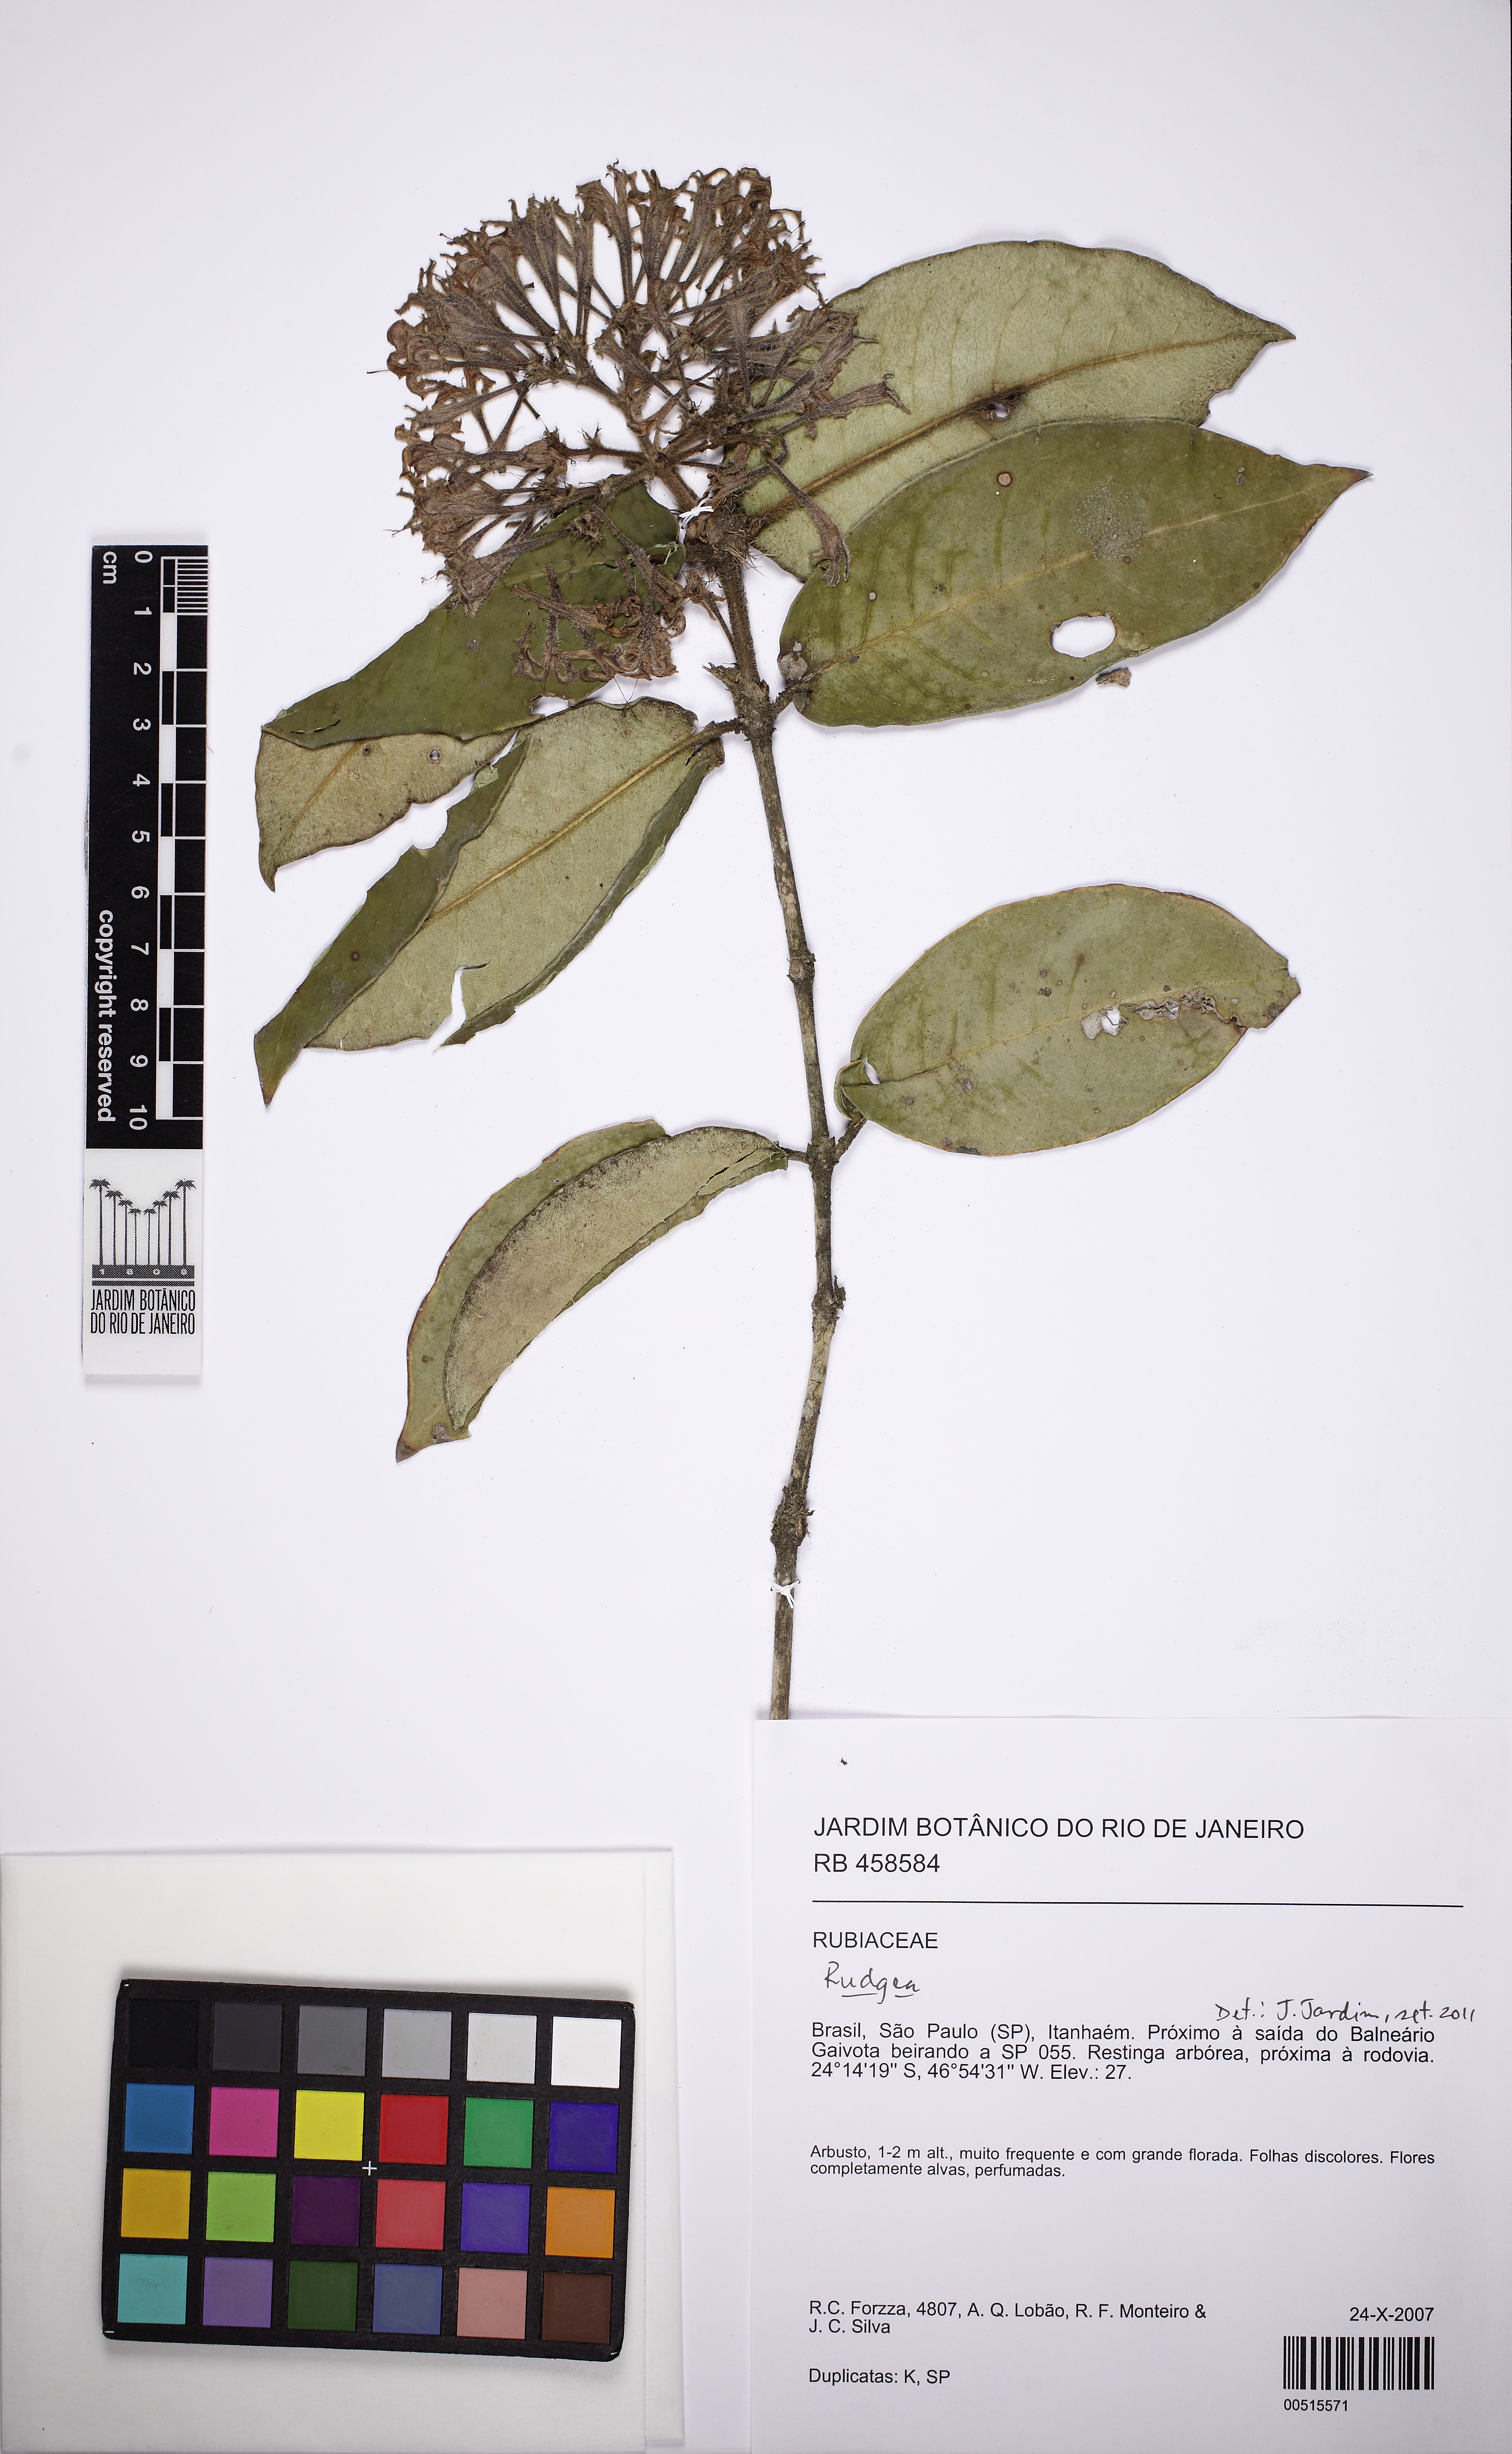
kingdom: Plantae
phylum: Tracheophyta
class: Magnoliopsida
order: Gentianales
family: Rubiaceae
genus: Rudgea
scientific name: Rudgea coriacea
